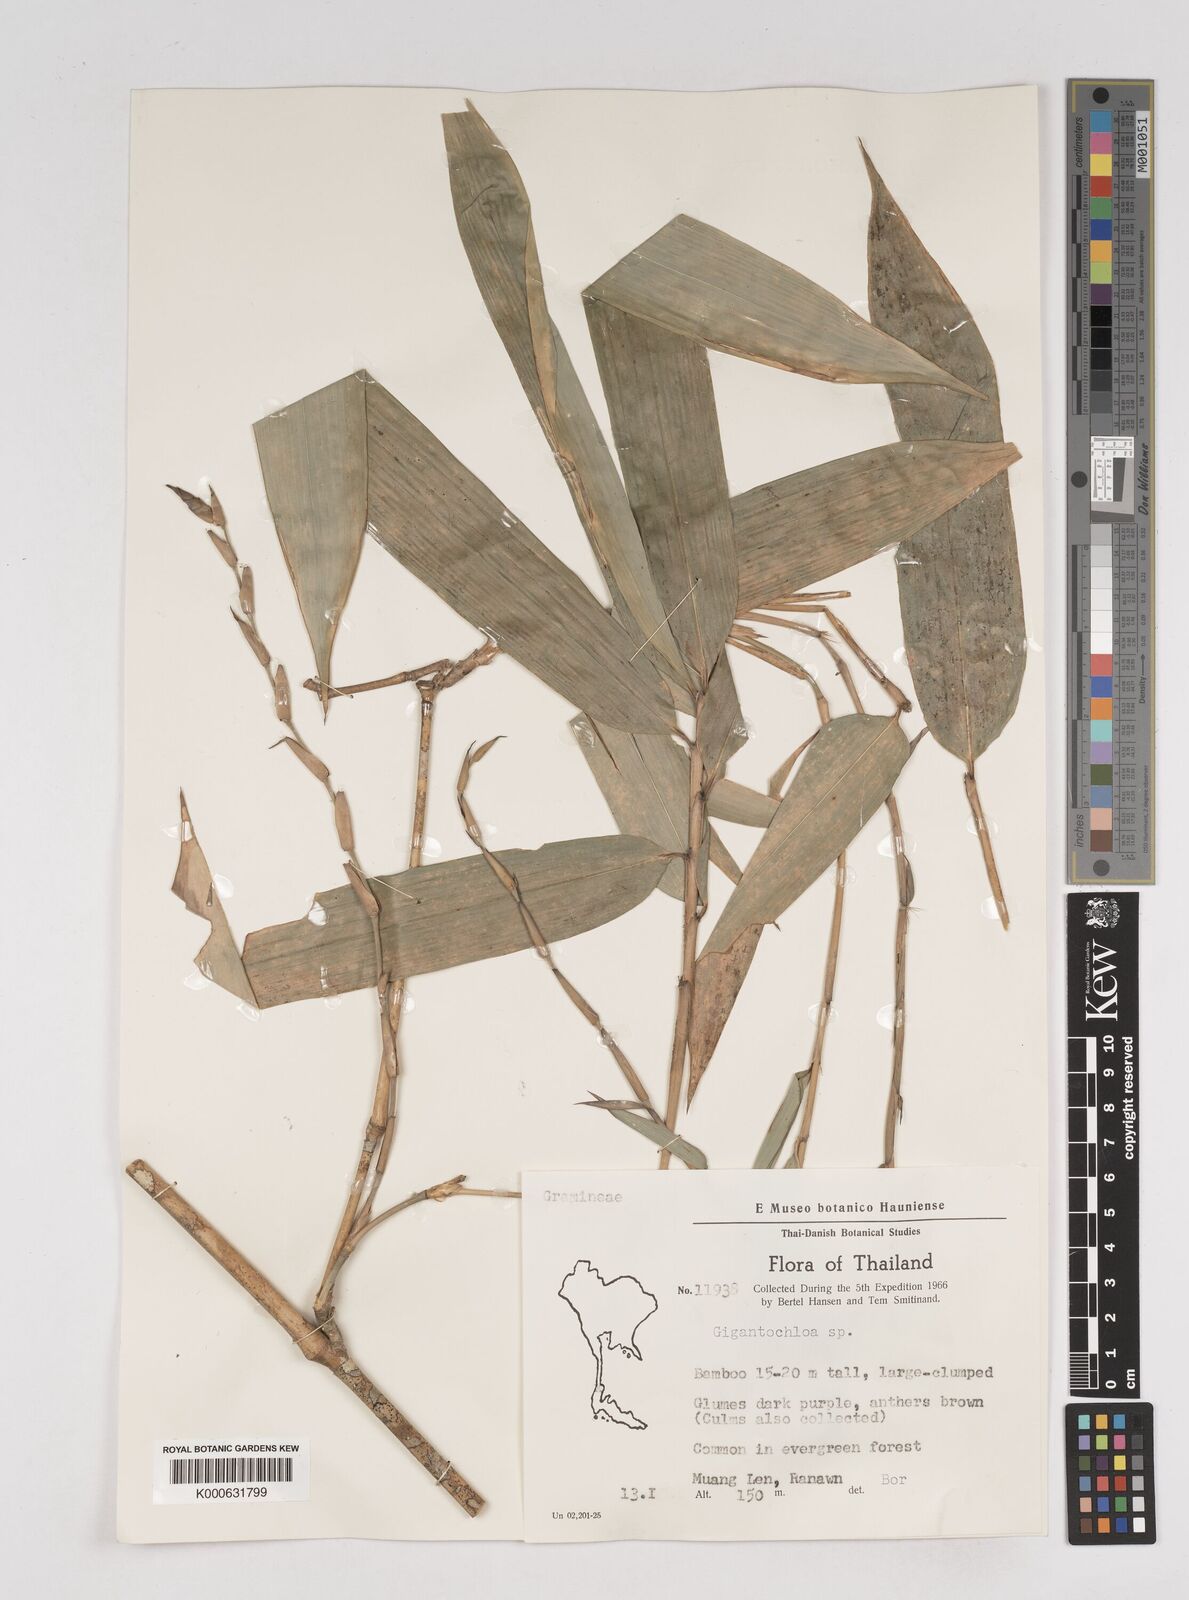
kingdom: Plantae
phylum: Tracheophyta
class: Liliopsida
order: Poales
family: Poaceae
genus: Gigantochloa
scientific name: Gigantochloa
